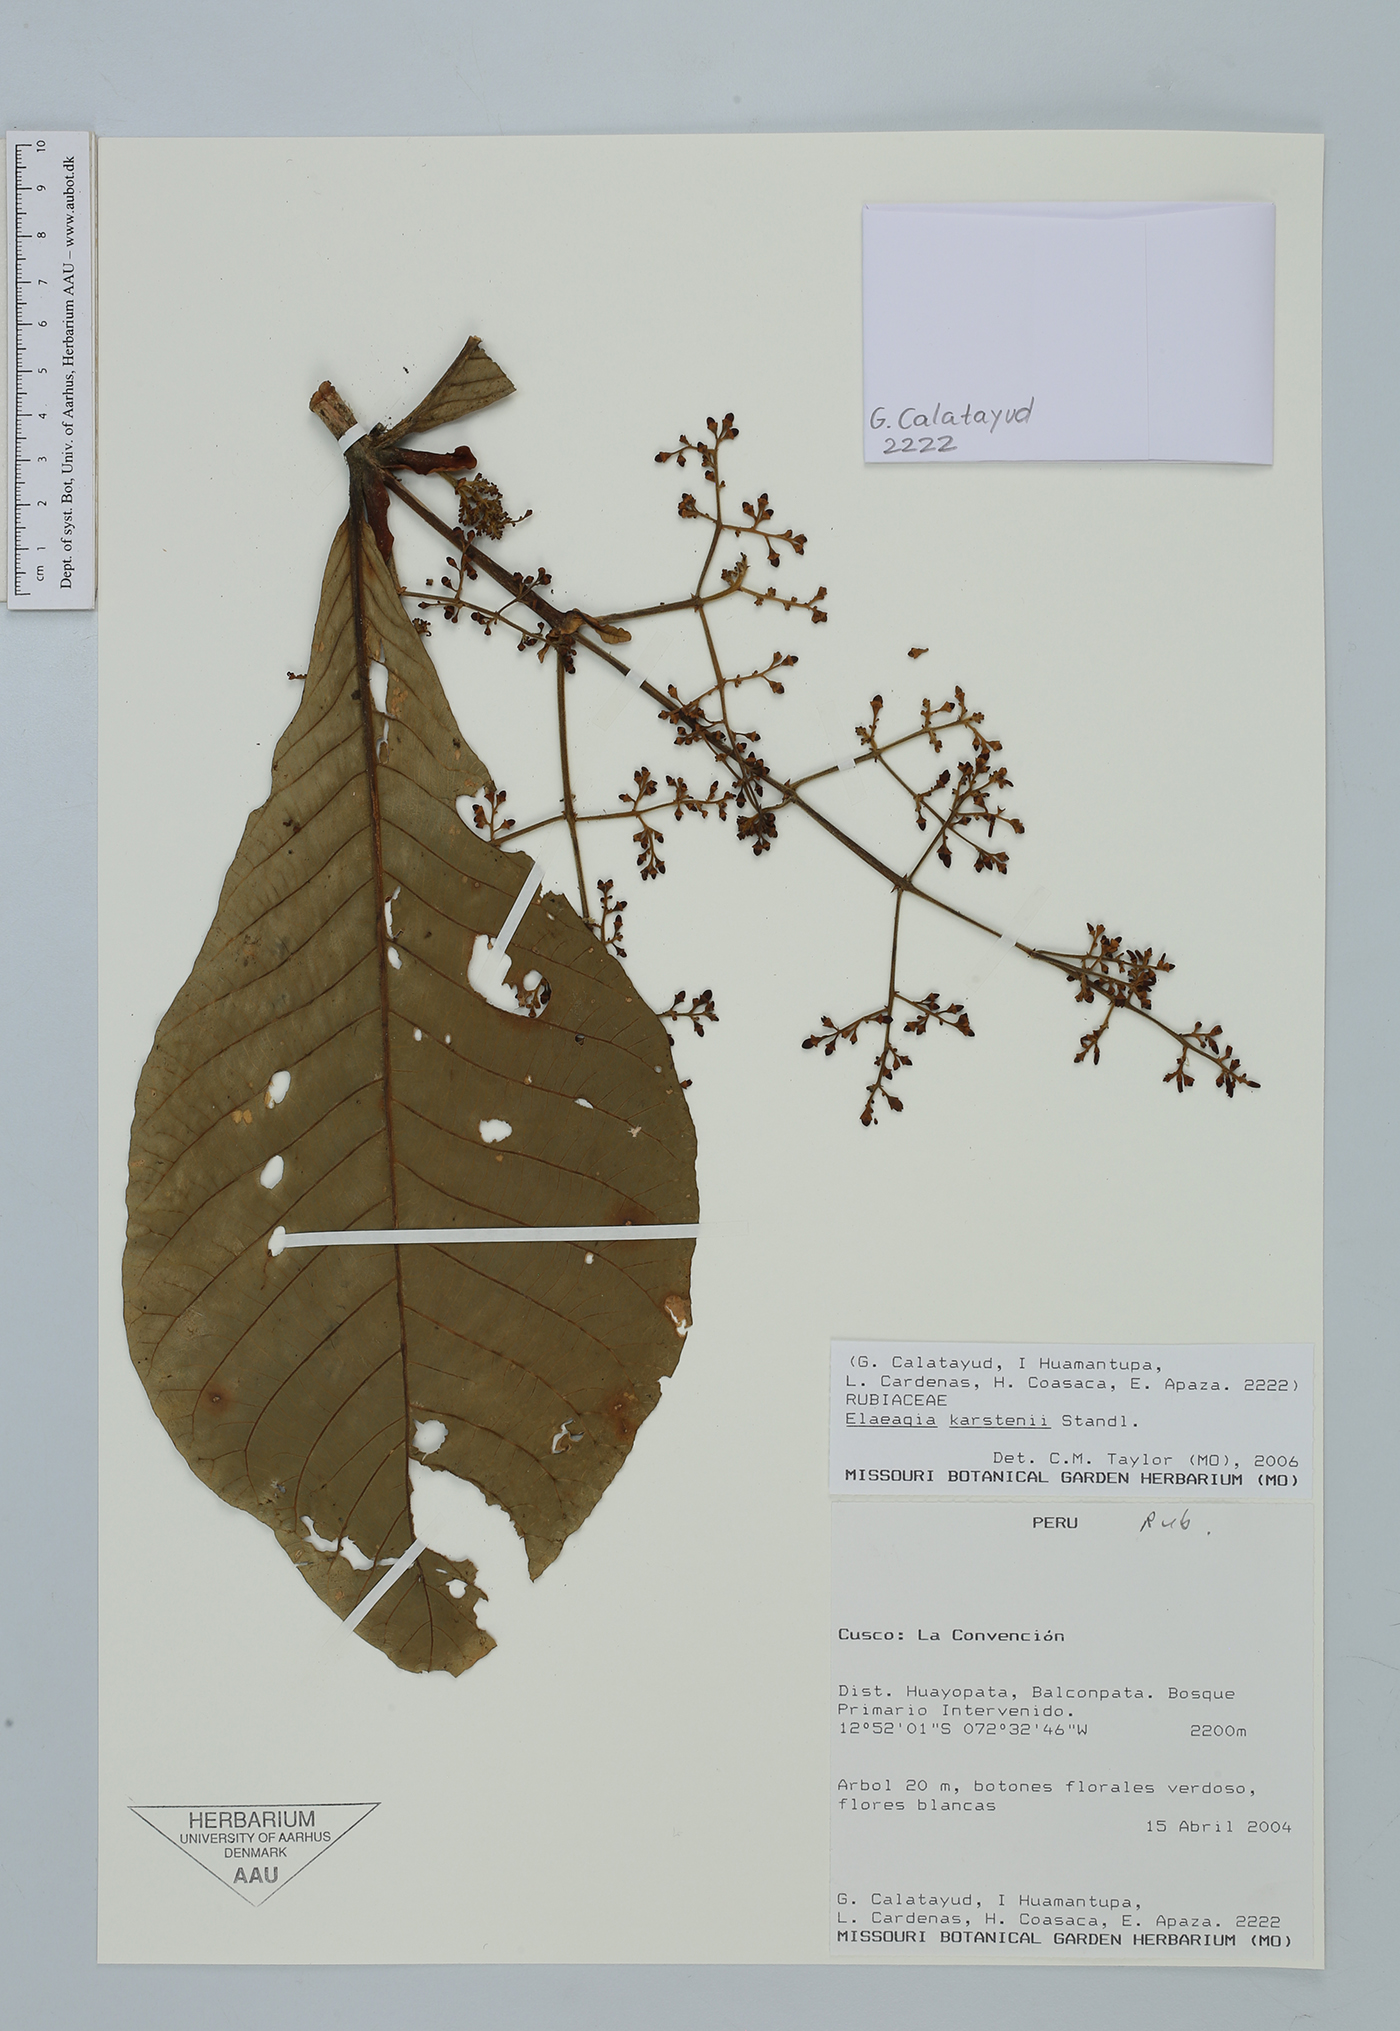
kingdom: Plantae
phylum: Tracheophyta
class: Magnoliopsida
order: Gentianales
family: Rubiaceae
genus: Elaeagia
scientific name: Elaeagia karstenii
